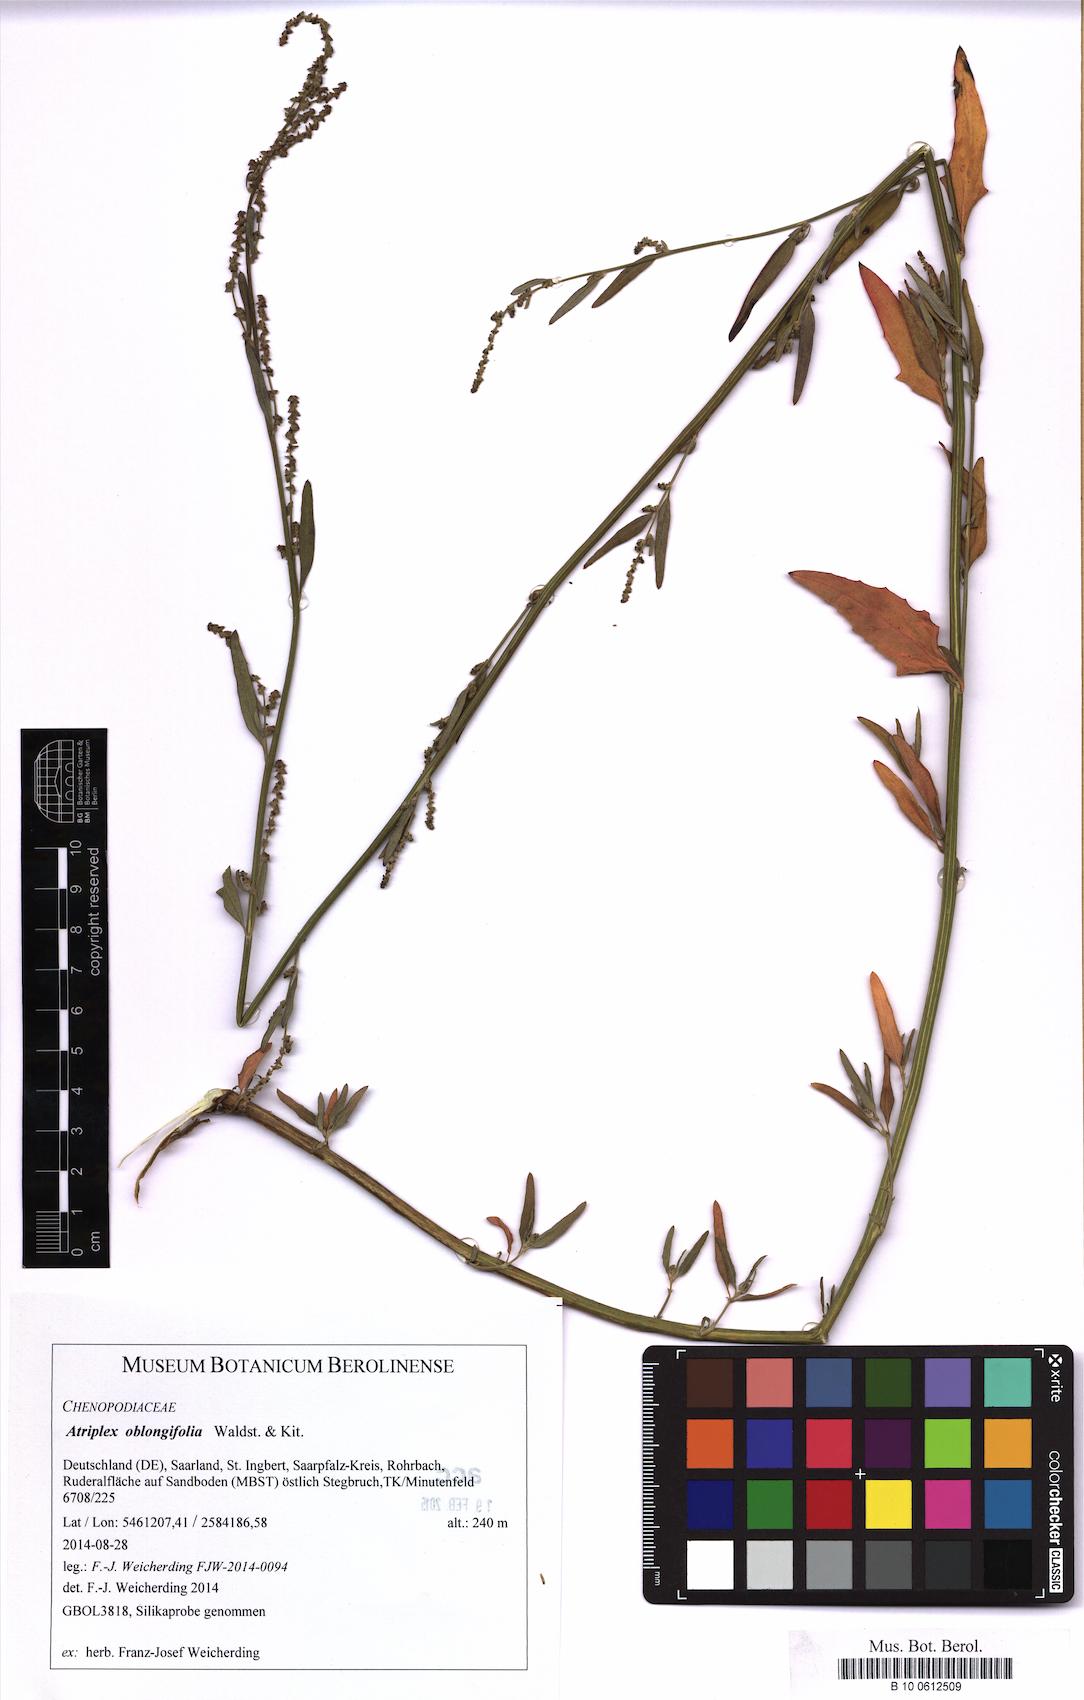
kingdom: Plantae
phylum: Tracheophyta
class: Magnoliopsida
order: Caryophyllales
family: Amaranthaceae
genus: Atriplex
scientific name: Atriplex oblongifolia
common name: Oblongleaf orache
